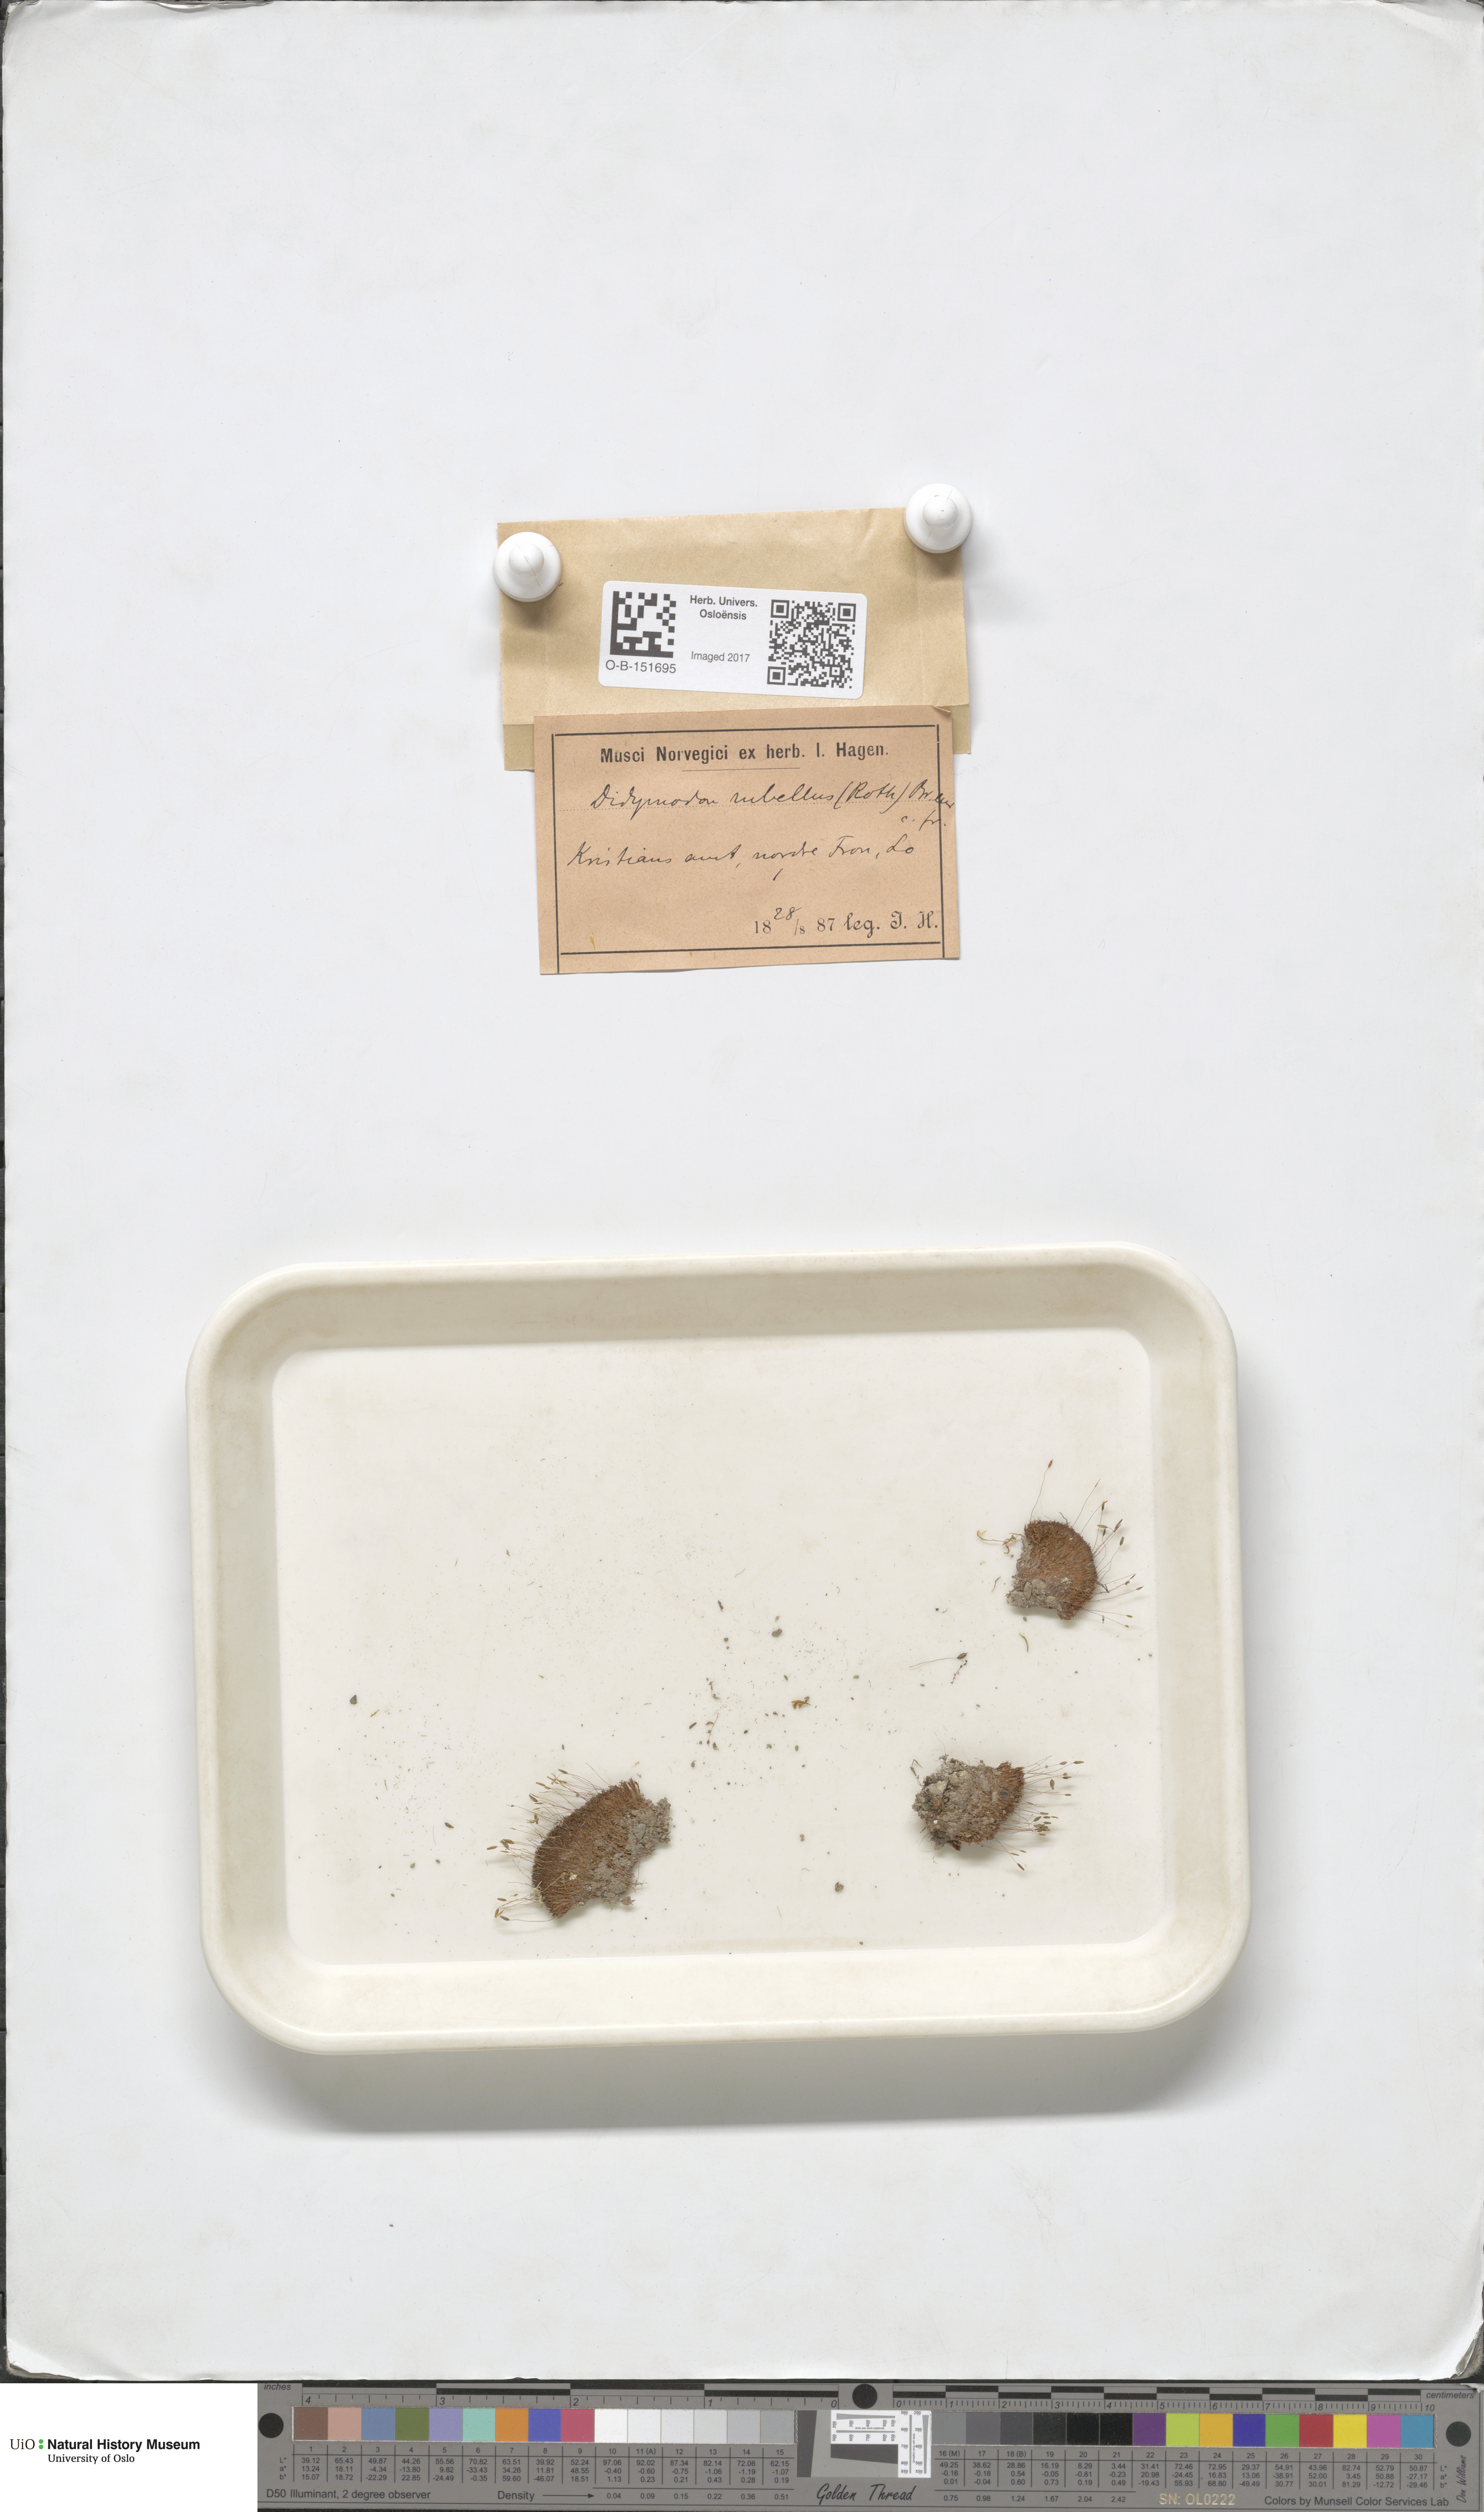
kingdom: Plantae
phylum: Bryophyta
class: Bryopsida
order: Pottiales
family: Pottiaceae
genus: Bryoerythrophyllum
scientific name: Bryoerythrophyllum recurvirostrum
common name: Red beard moss
